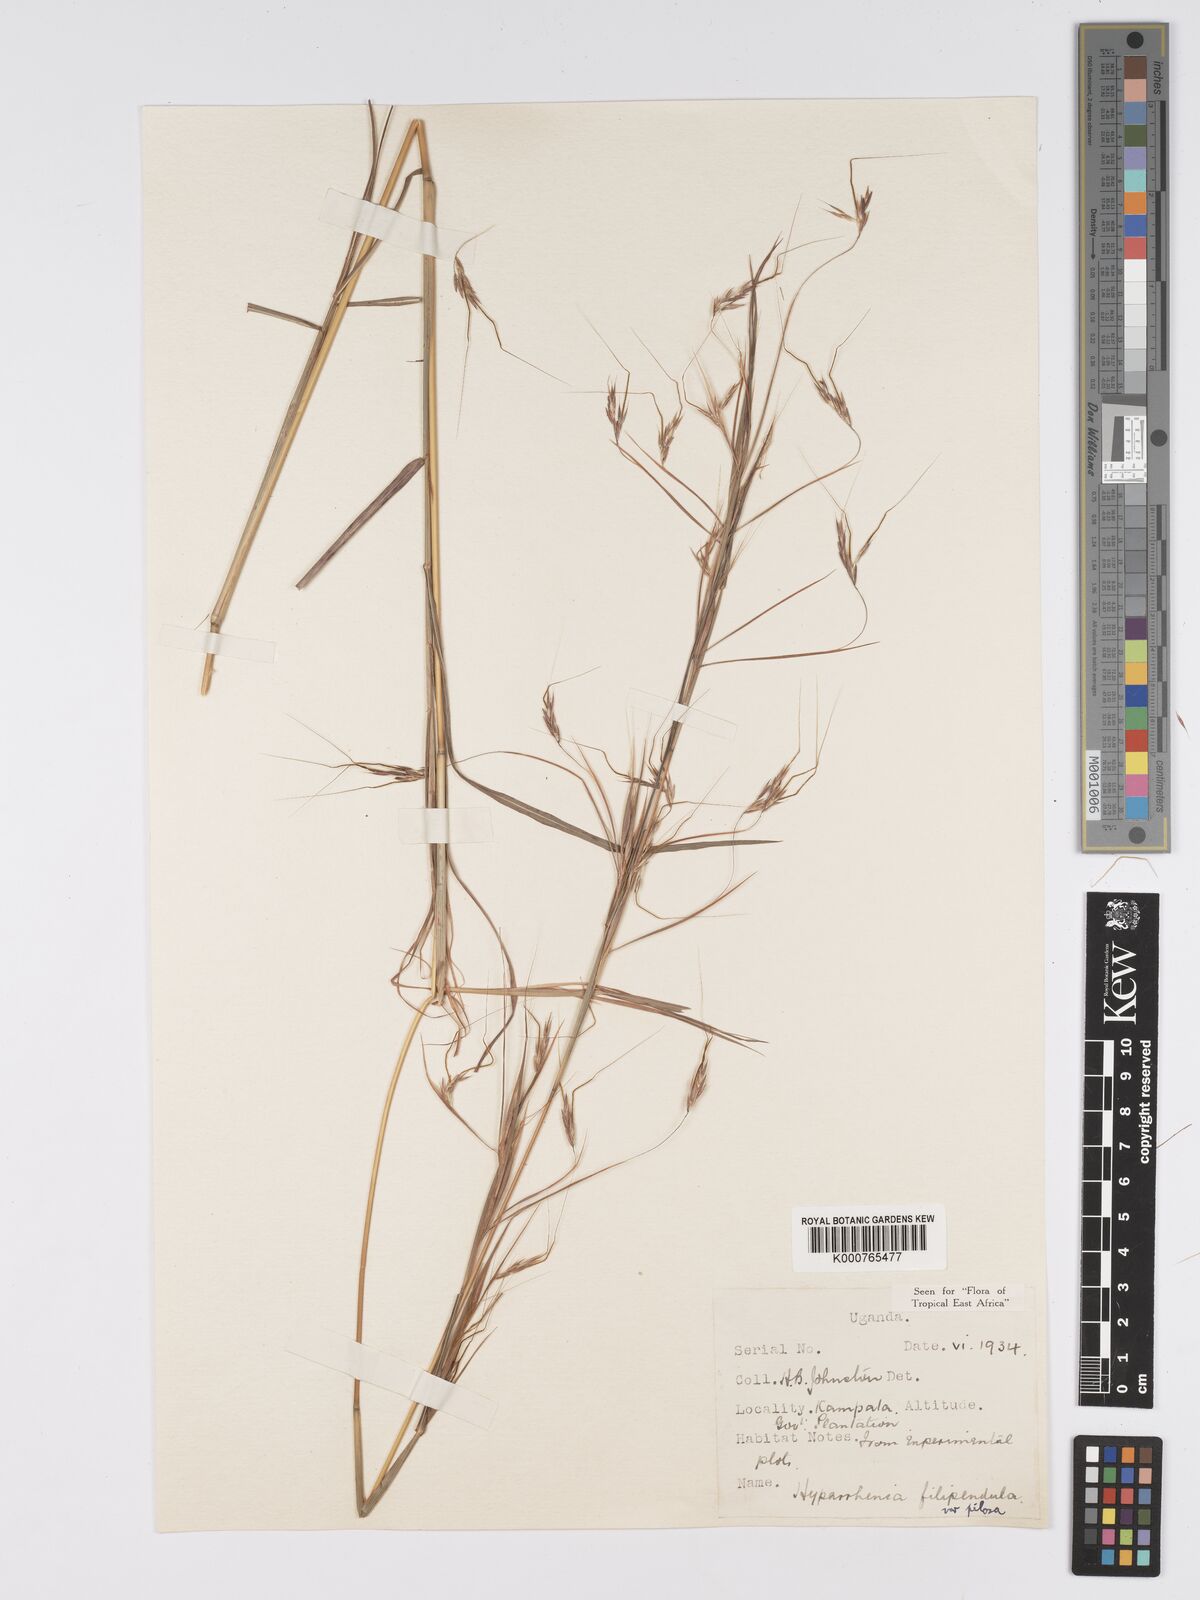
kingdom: Plantae
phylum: Tracheophyta
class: Liliopsida
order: Poales
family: Poaceae
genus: Hyparrhenia
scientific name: Hyparrhenia filipendula
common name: Tambookie grass
